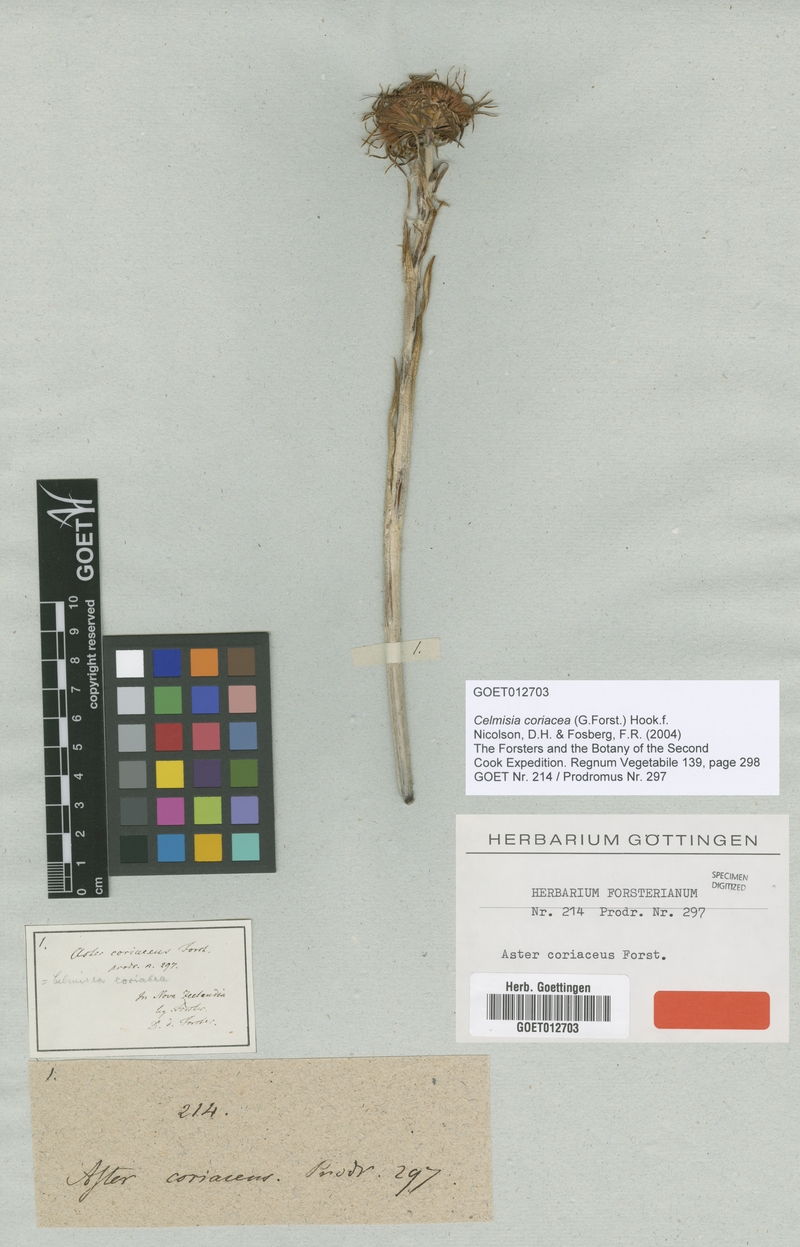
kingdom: Plantae
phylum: Tracheophyta
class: Magnoliopsida
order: Asterales
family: Asteraceae
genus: Celmisia
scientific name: Celmisia coriacea
